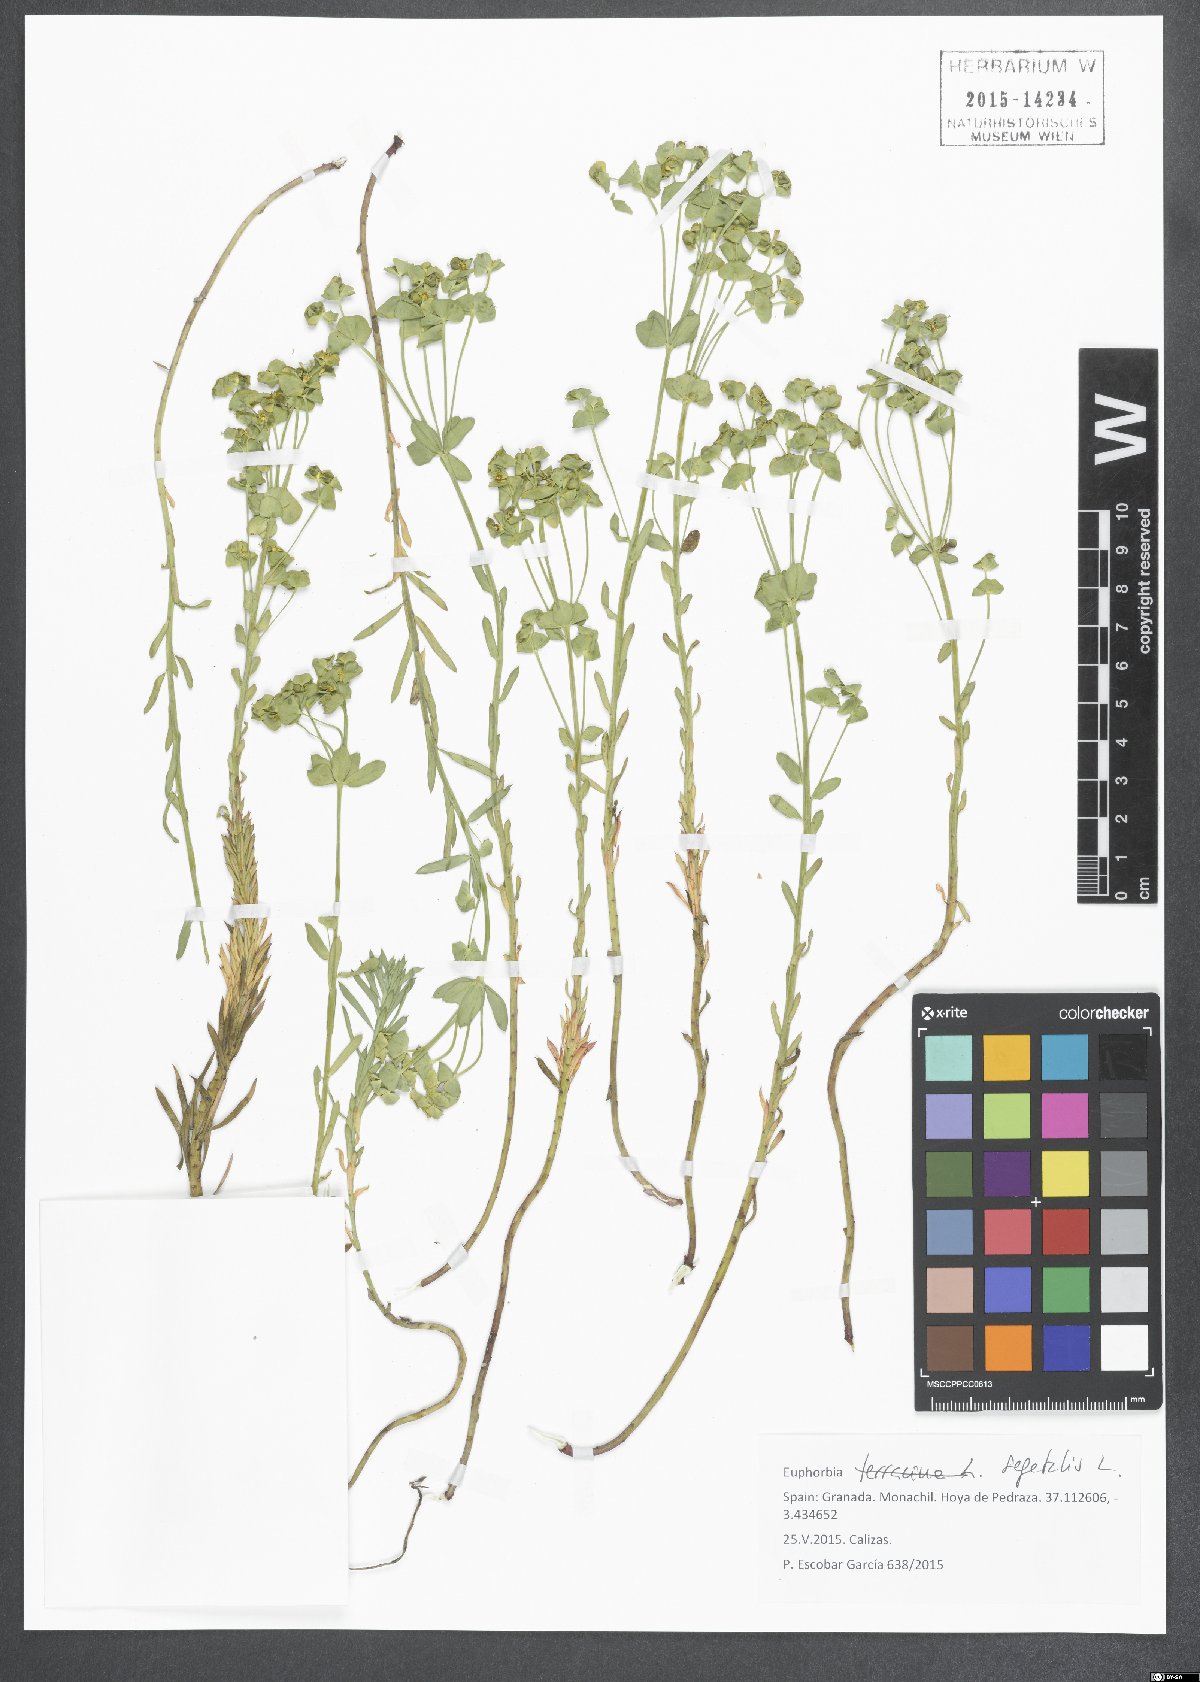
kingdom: Plantae
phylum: Tracheophyta
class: Magnoliopsida
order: Malpighiales
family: Euphorbiaceae
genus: Euphorbia
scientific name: Euphorbia segetalis
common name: Corn spurge
